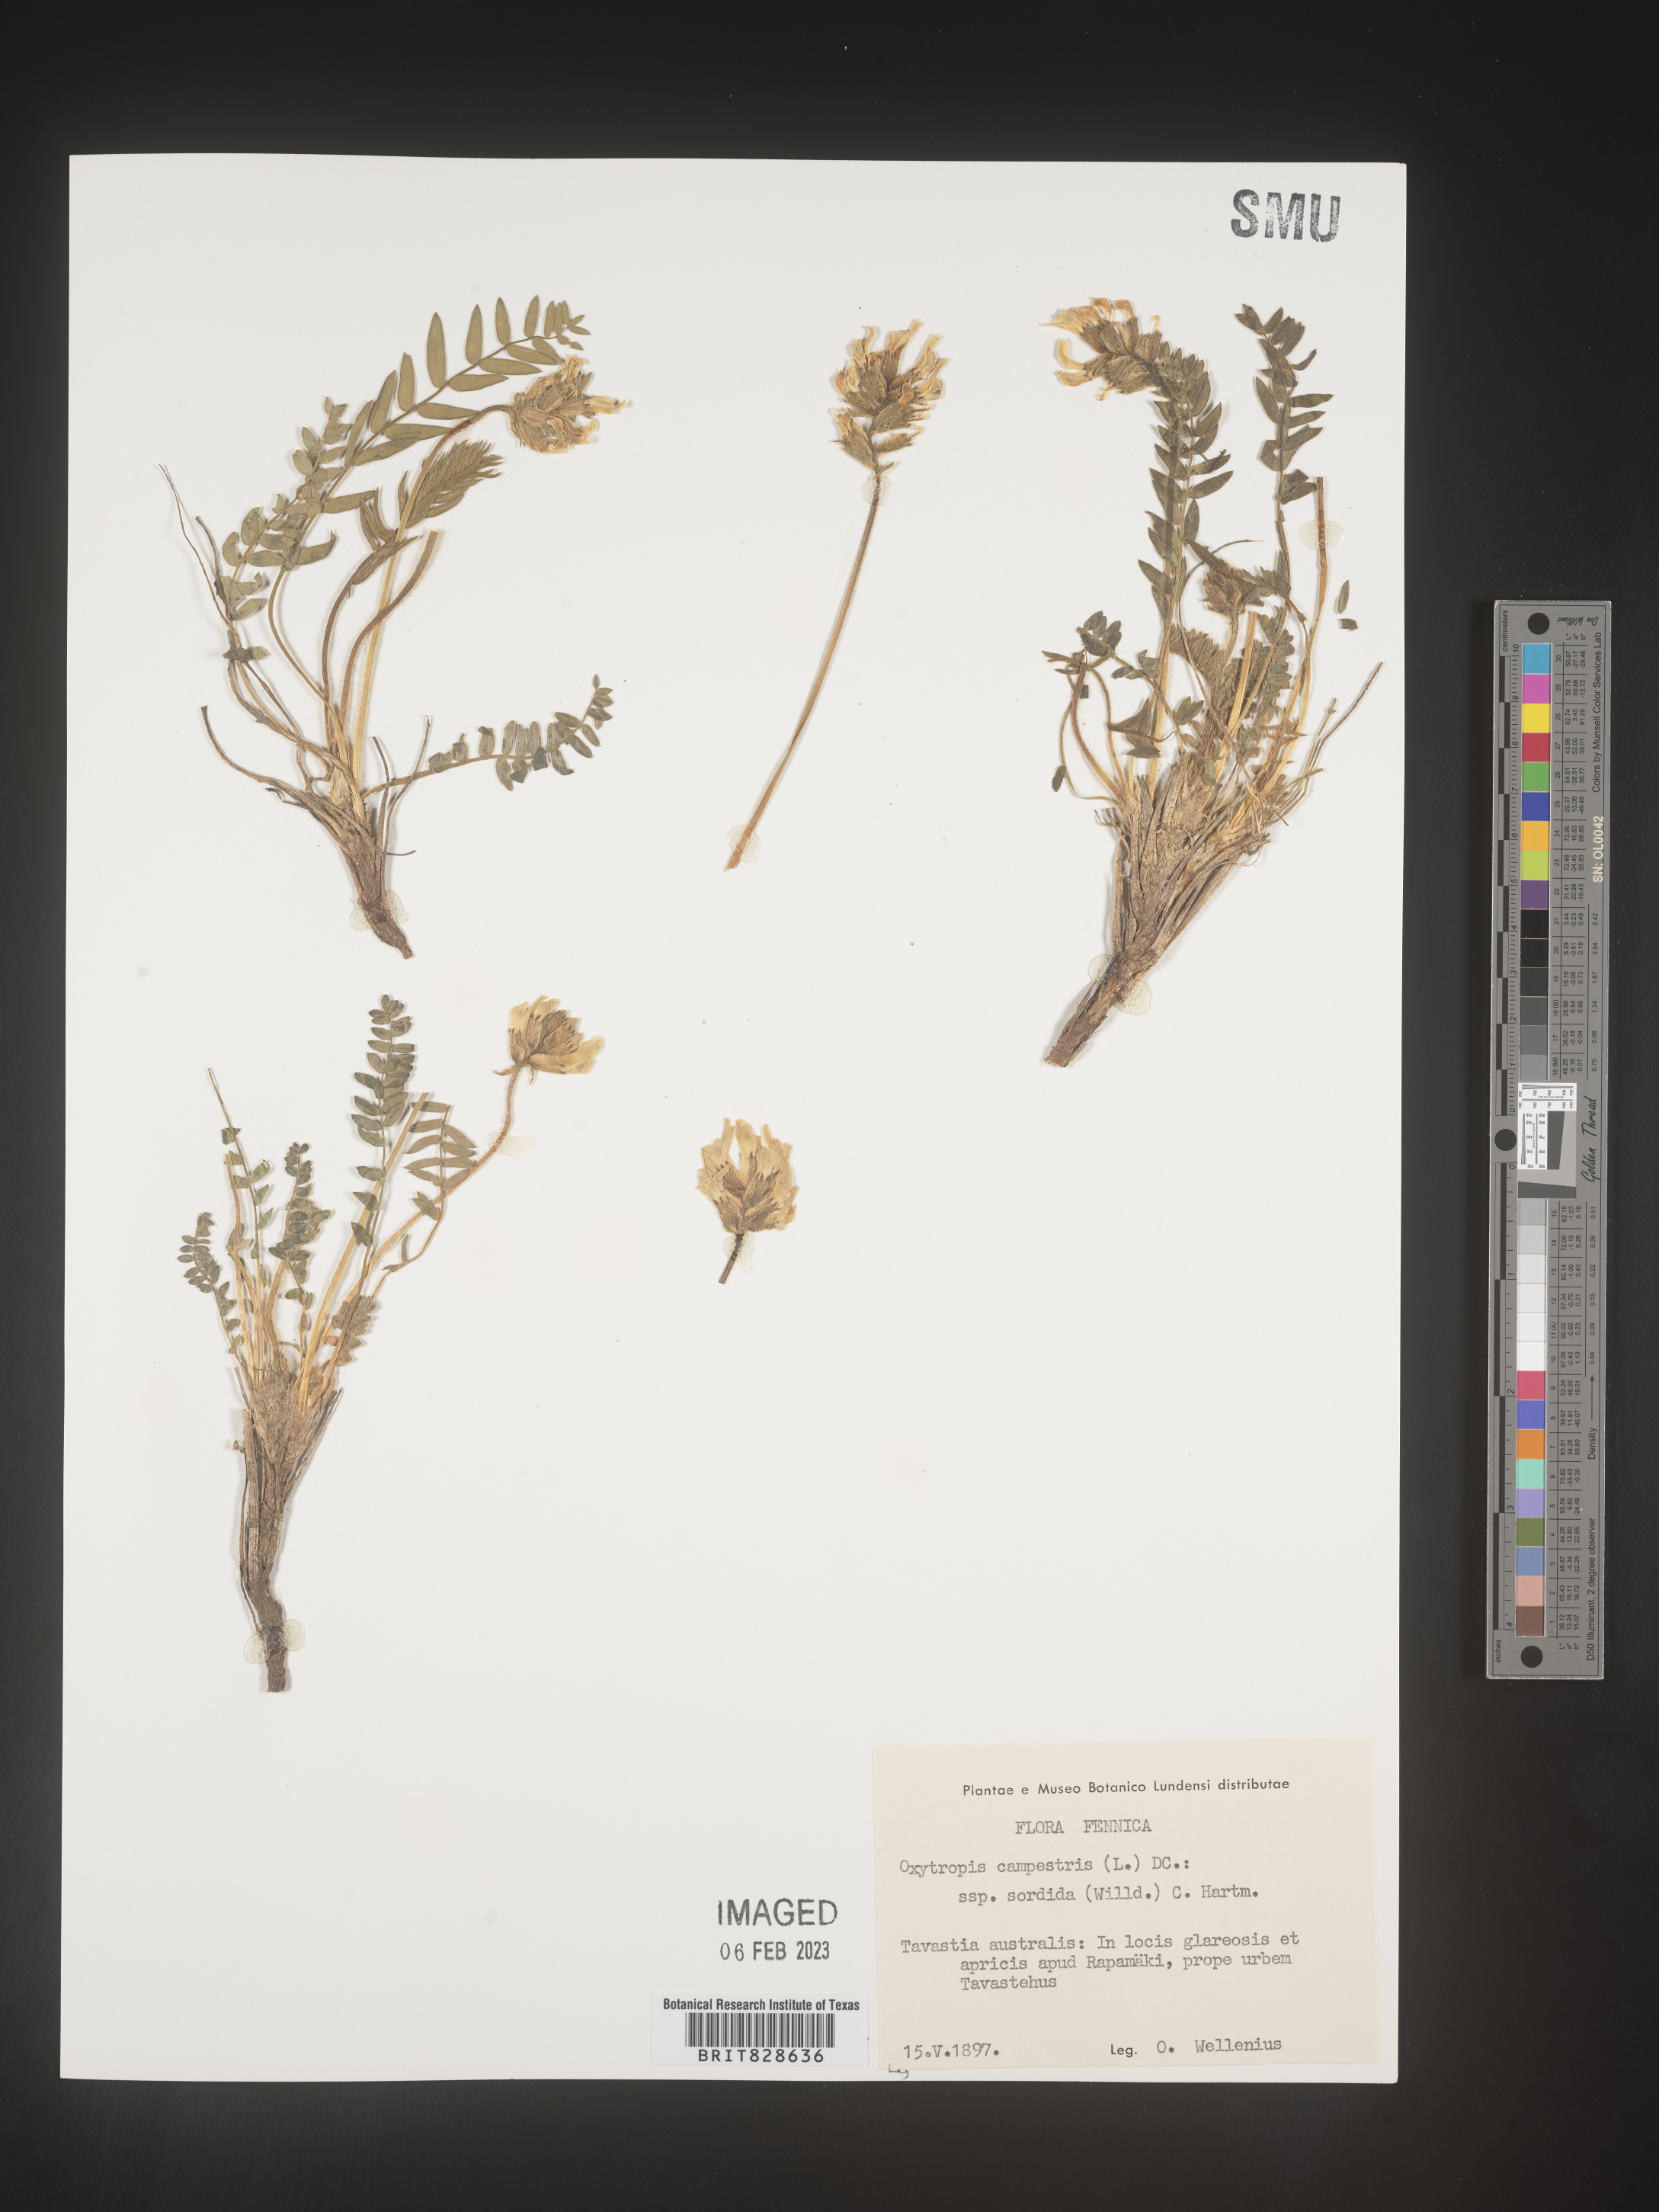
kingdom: Plantae
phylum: Tracheophyta
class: Magnoliopsida
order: Fabales
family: Fabaceae
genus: Oxytropis
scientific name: Oxytropis
